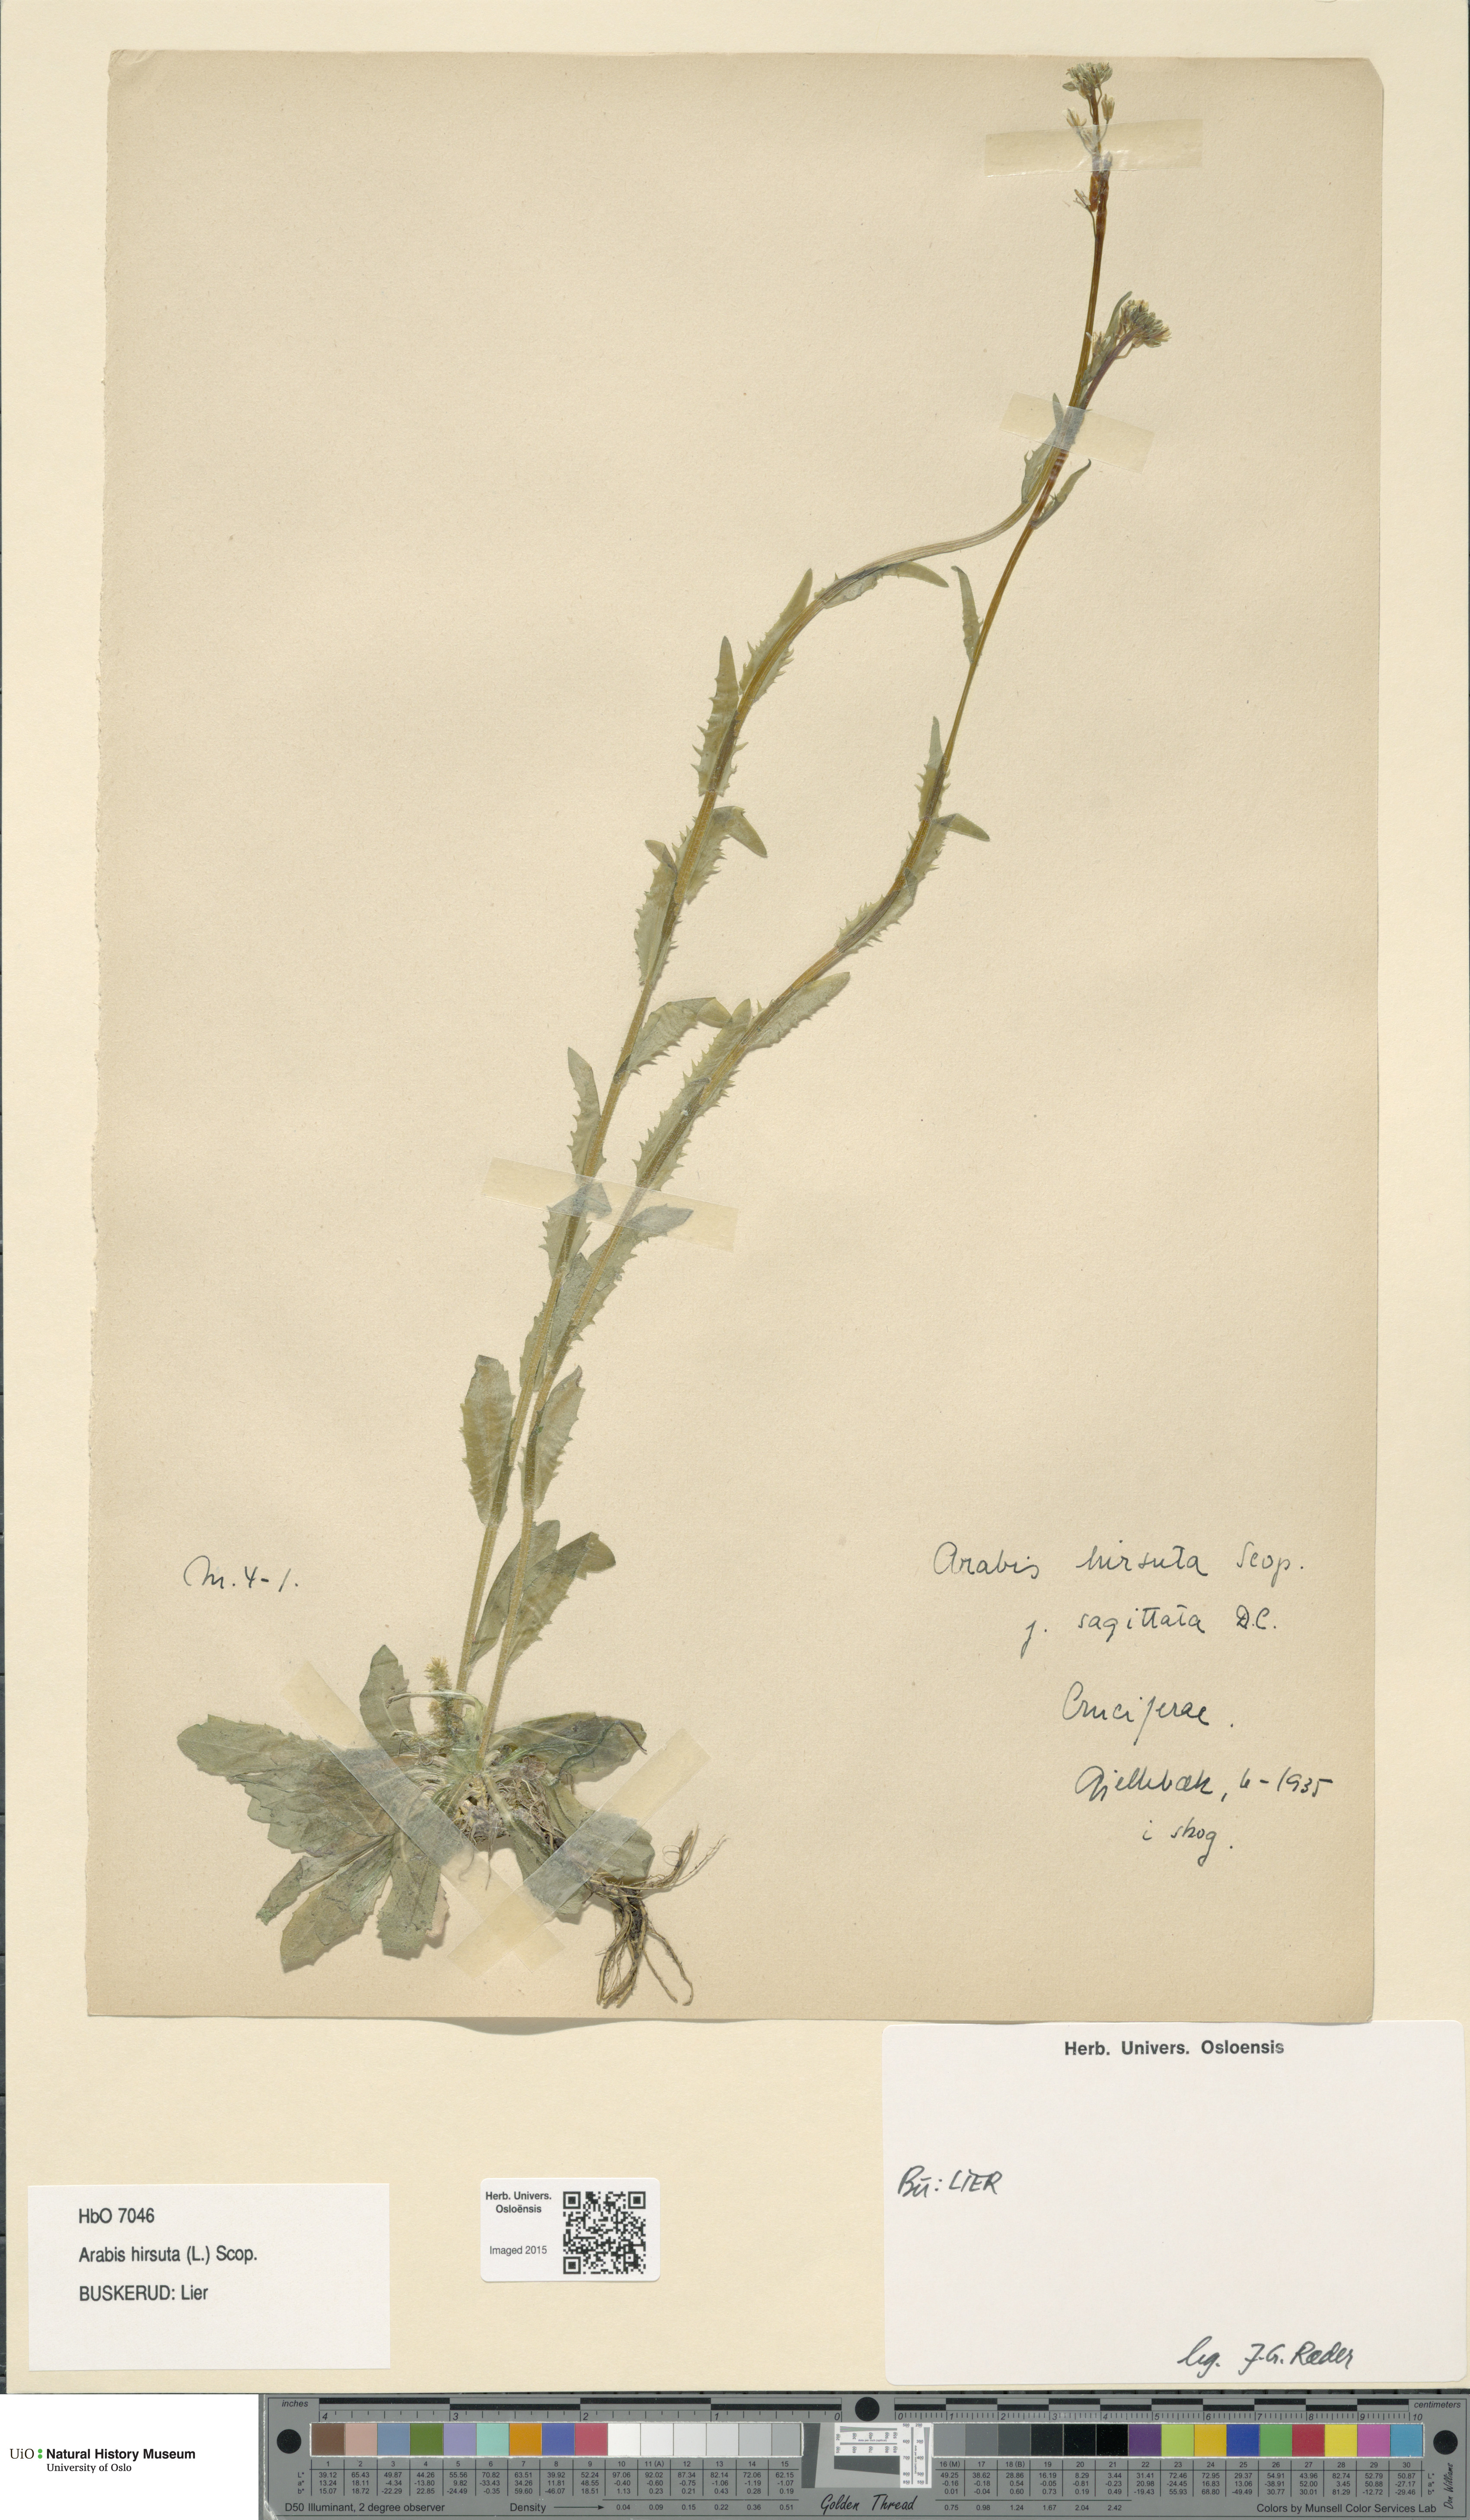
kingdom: Plantae
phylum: Tracheophyta
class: Magnoliopsida
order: Brassicales
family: Brassicaceae
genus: Arabis
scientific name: Arabis hirsuta
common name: Hairy rock-cress
